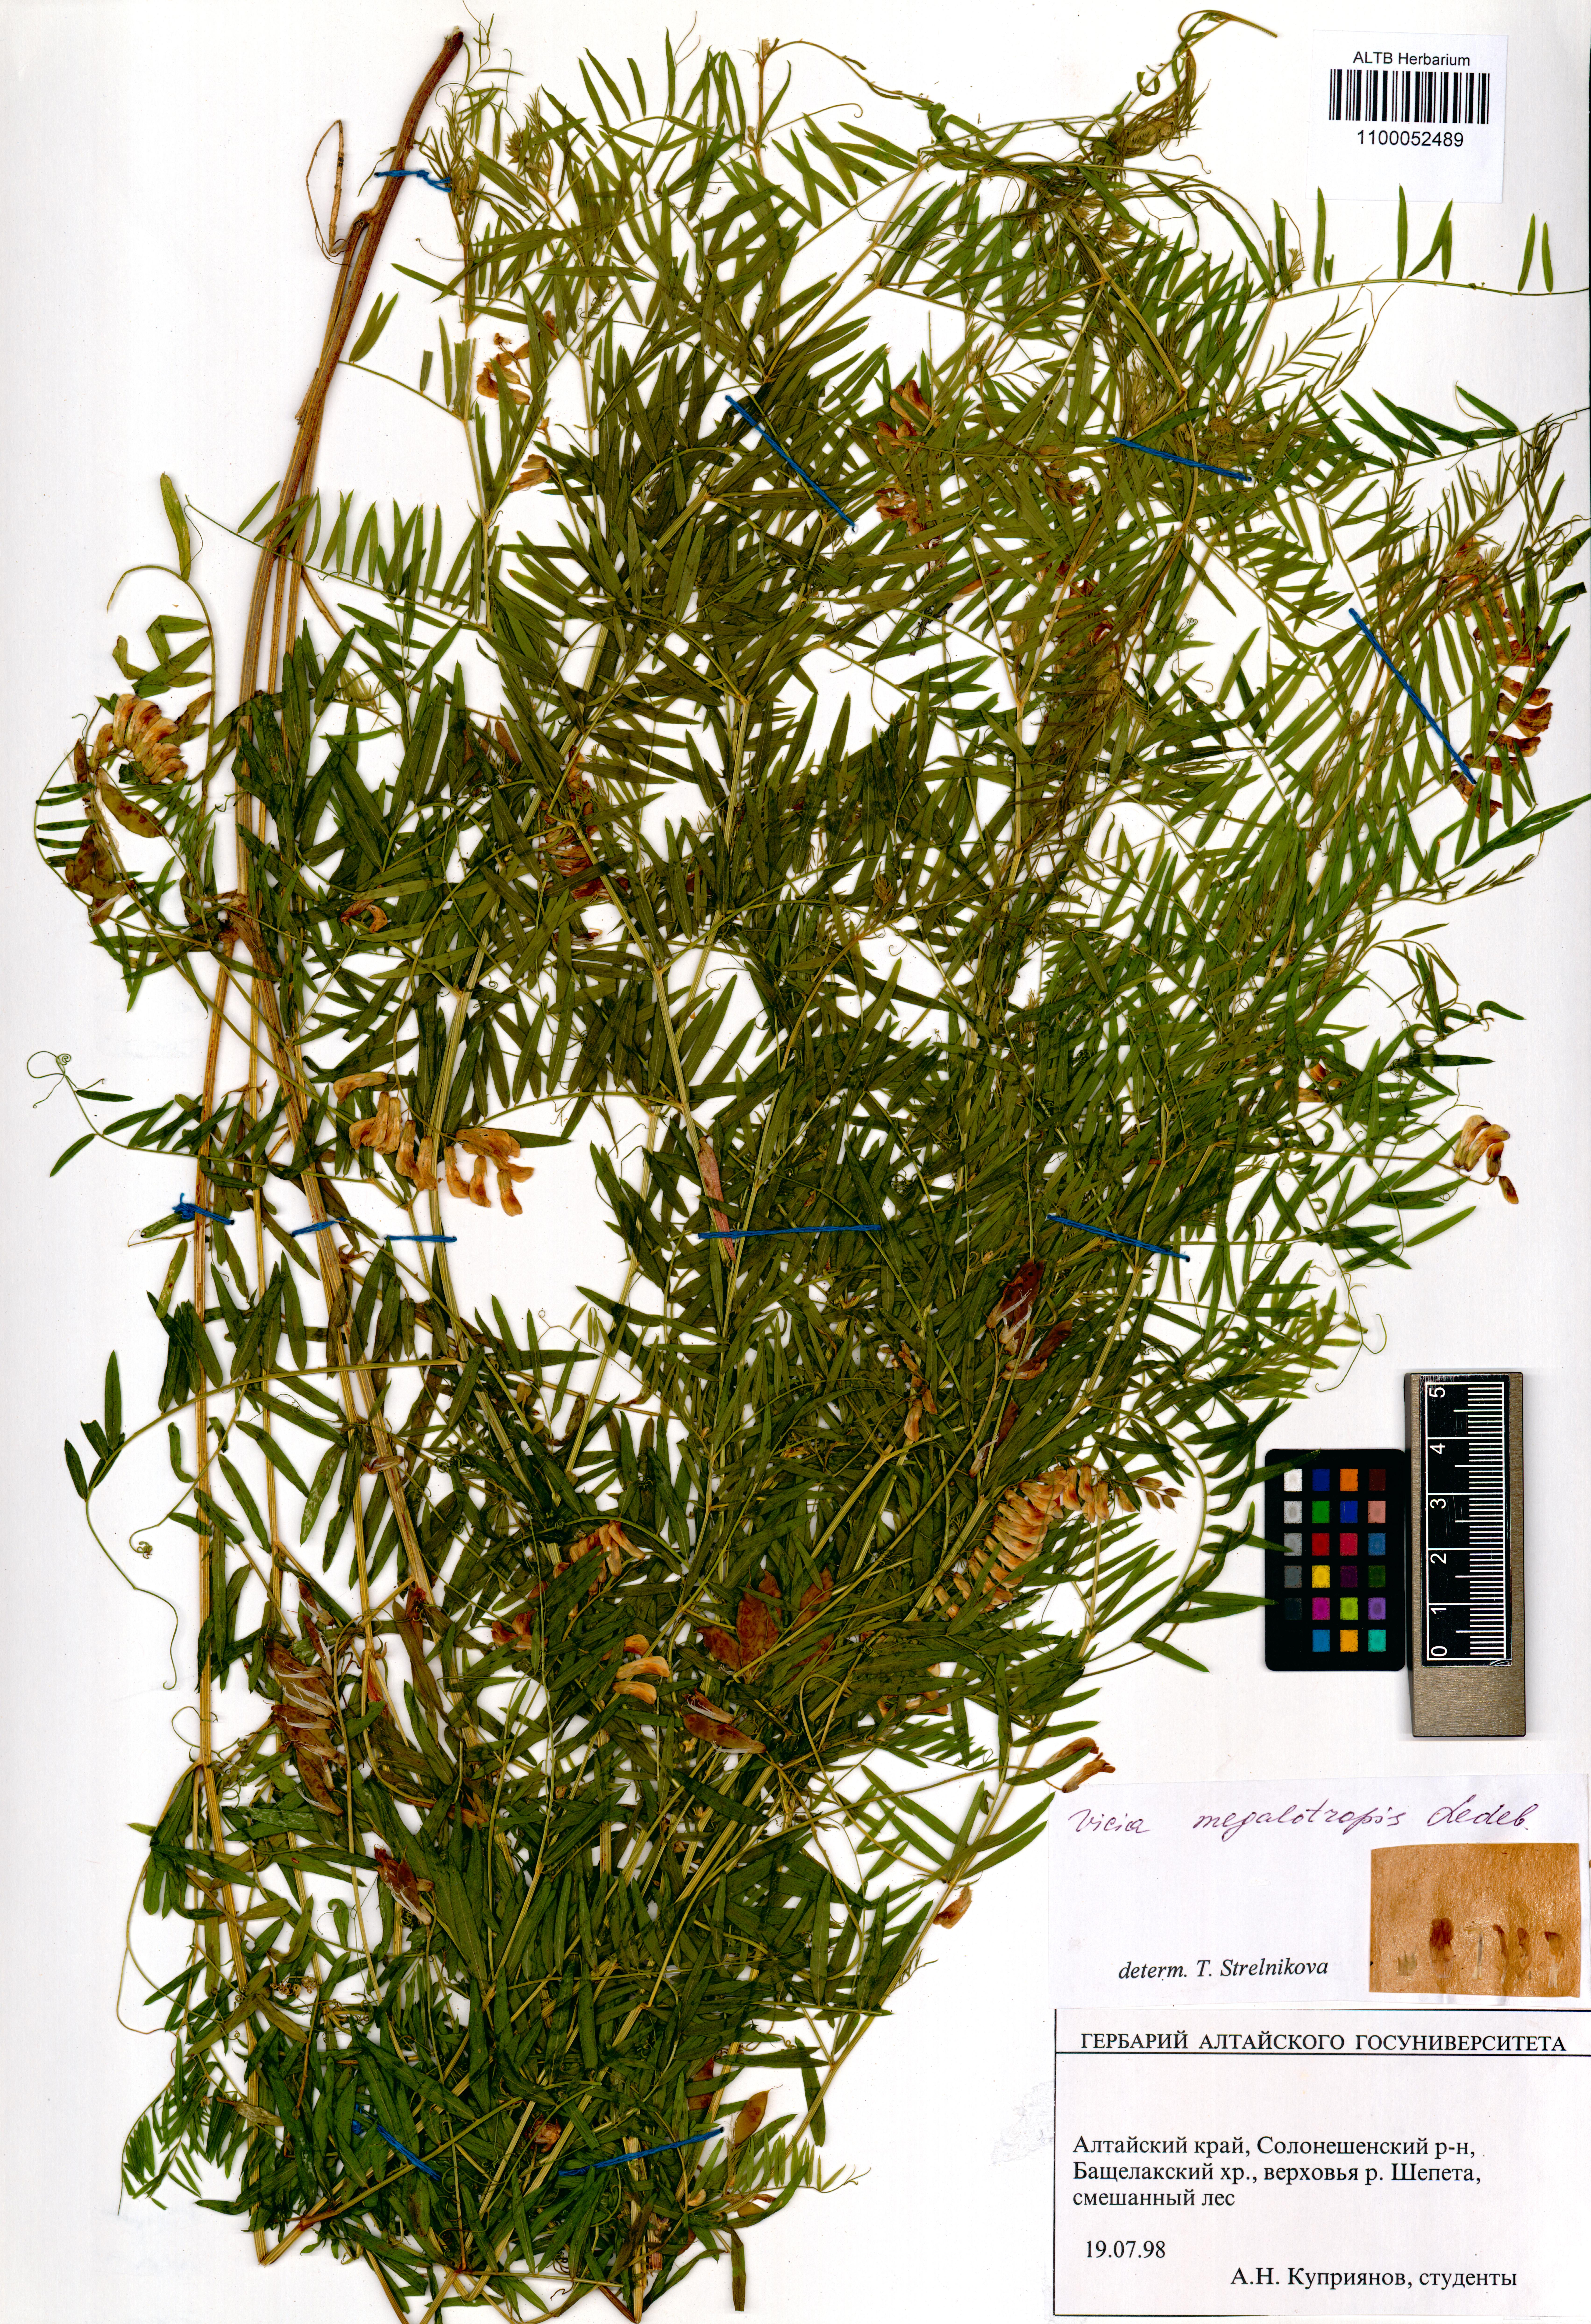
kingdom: Plantae
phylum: Tracheophyta
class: Magnoliopsida
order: Fabales
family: Fabaceae
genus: Vicia
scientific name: Vicia megalotropis
